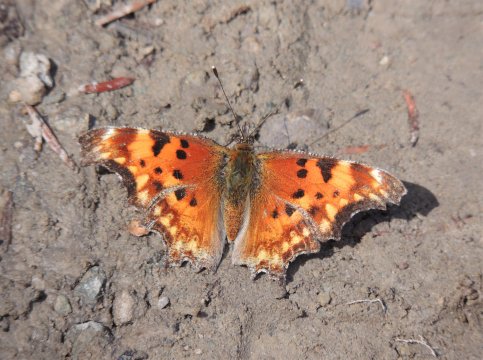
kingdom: Animalia
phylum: Arthropoda
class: Insecta
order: Lepidoptera
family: Nymphalidae
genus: Polygonia
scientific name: Polygonia gracilis
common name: Hoary Comma
